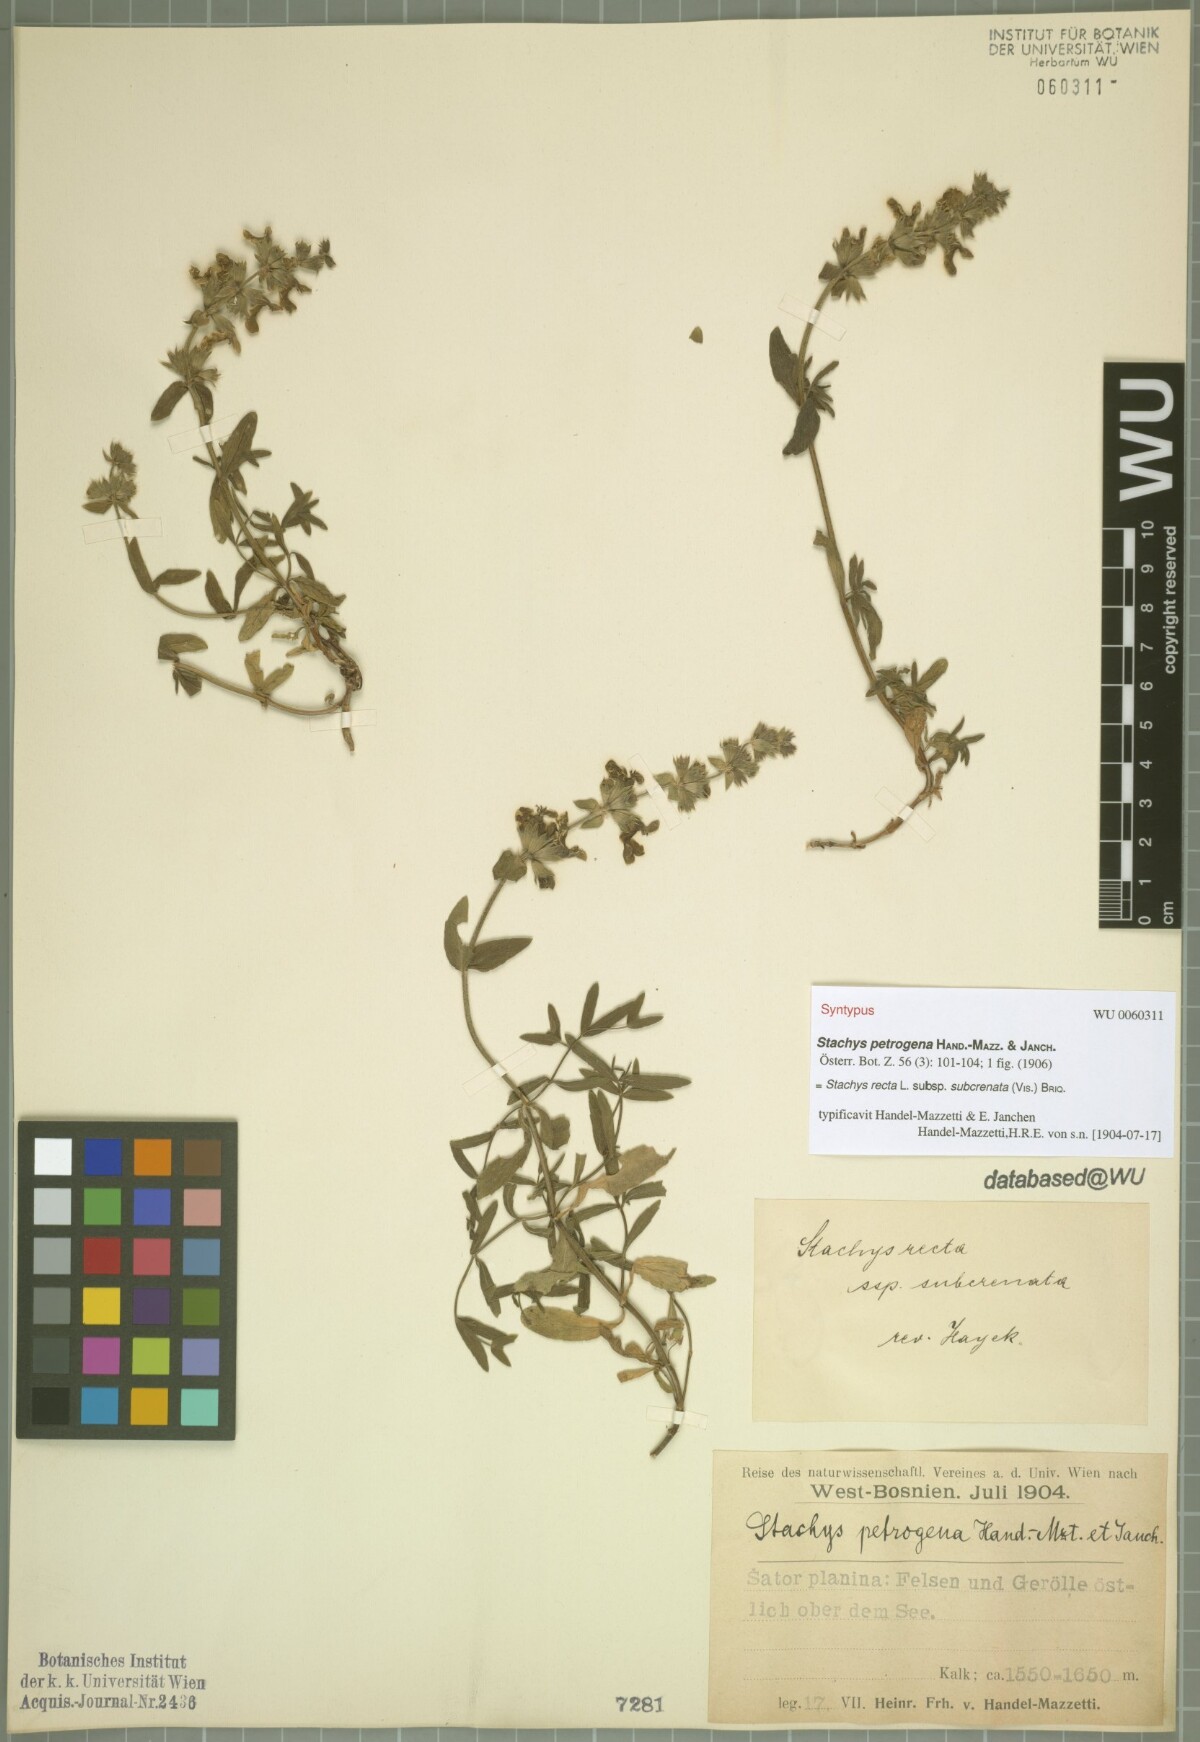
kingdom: Plantae
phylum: Tracheophyta
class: Magnoliopsida
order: Lamiales
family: Lamiaceae
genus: Stachys
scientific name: Stachys recta
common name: Perennial yellow-woundwort
